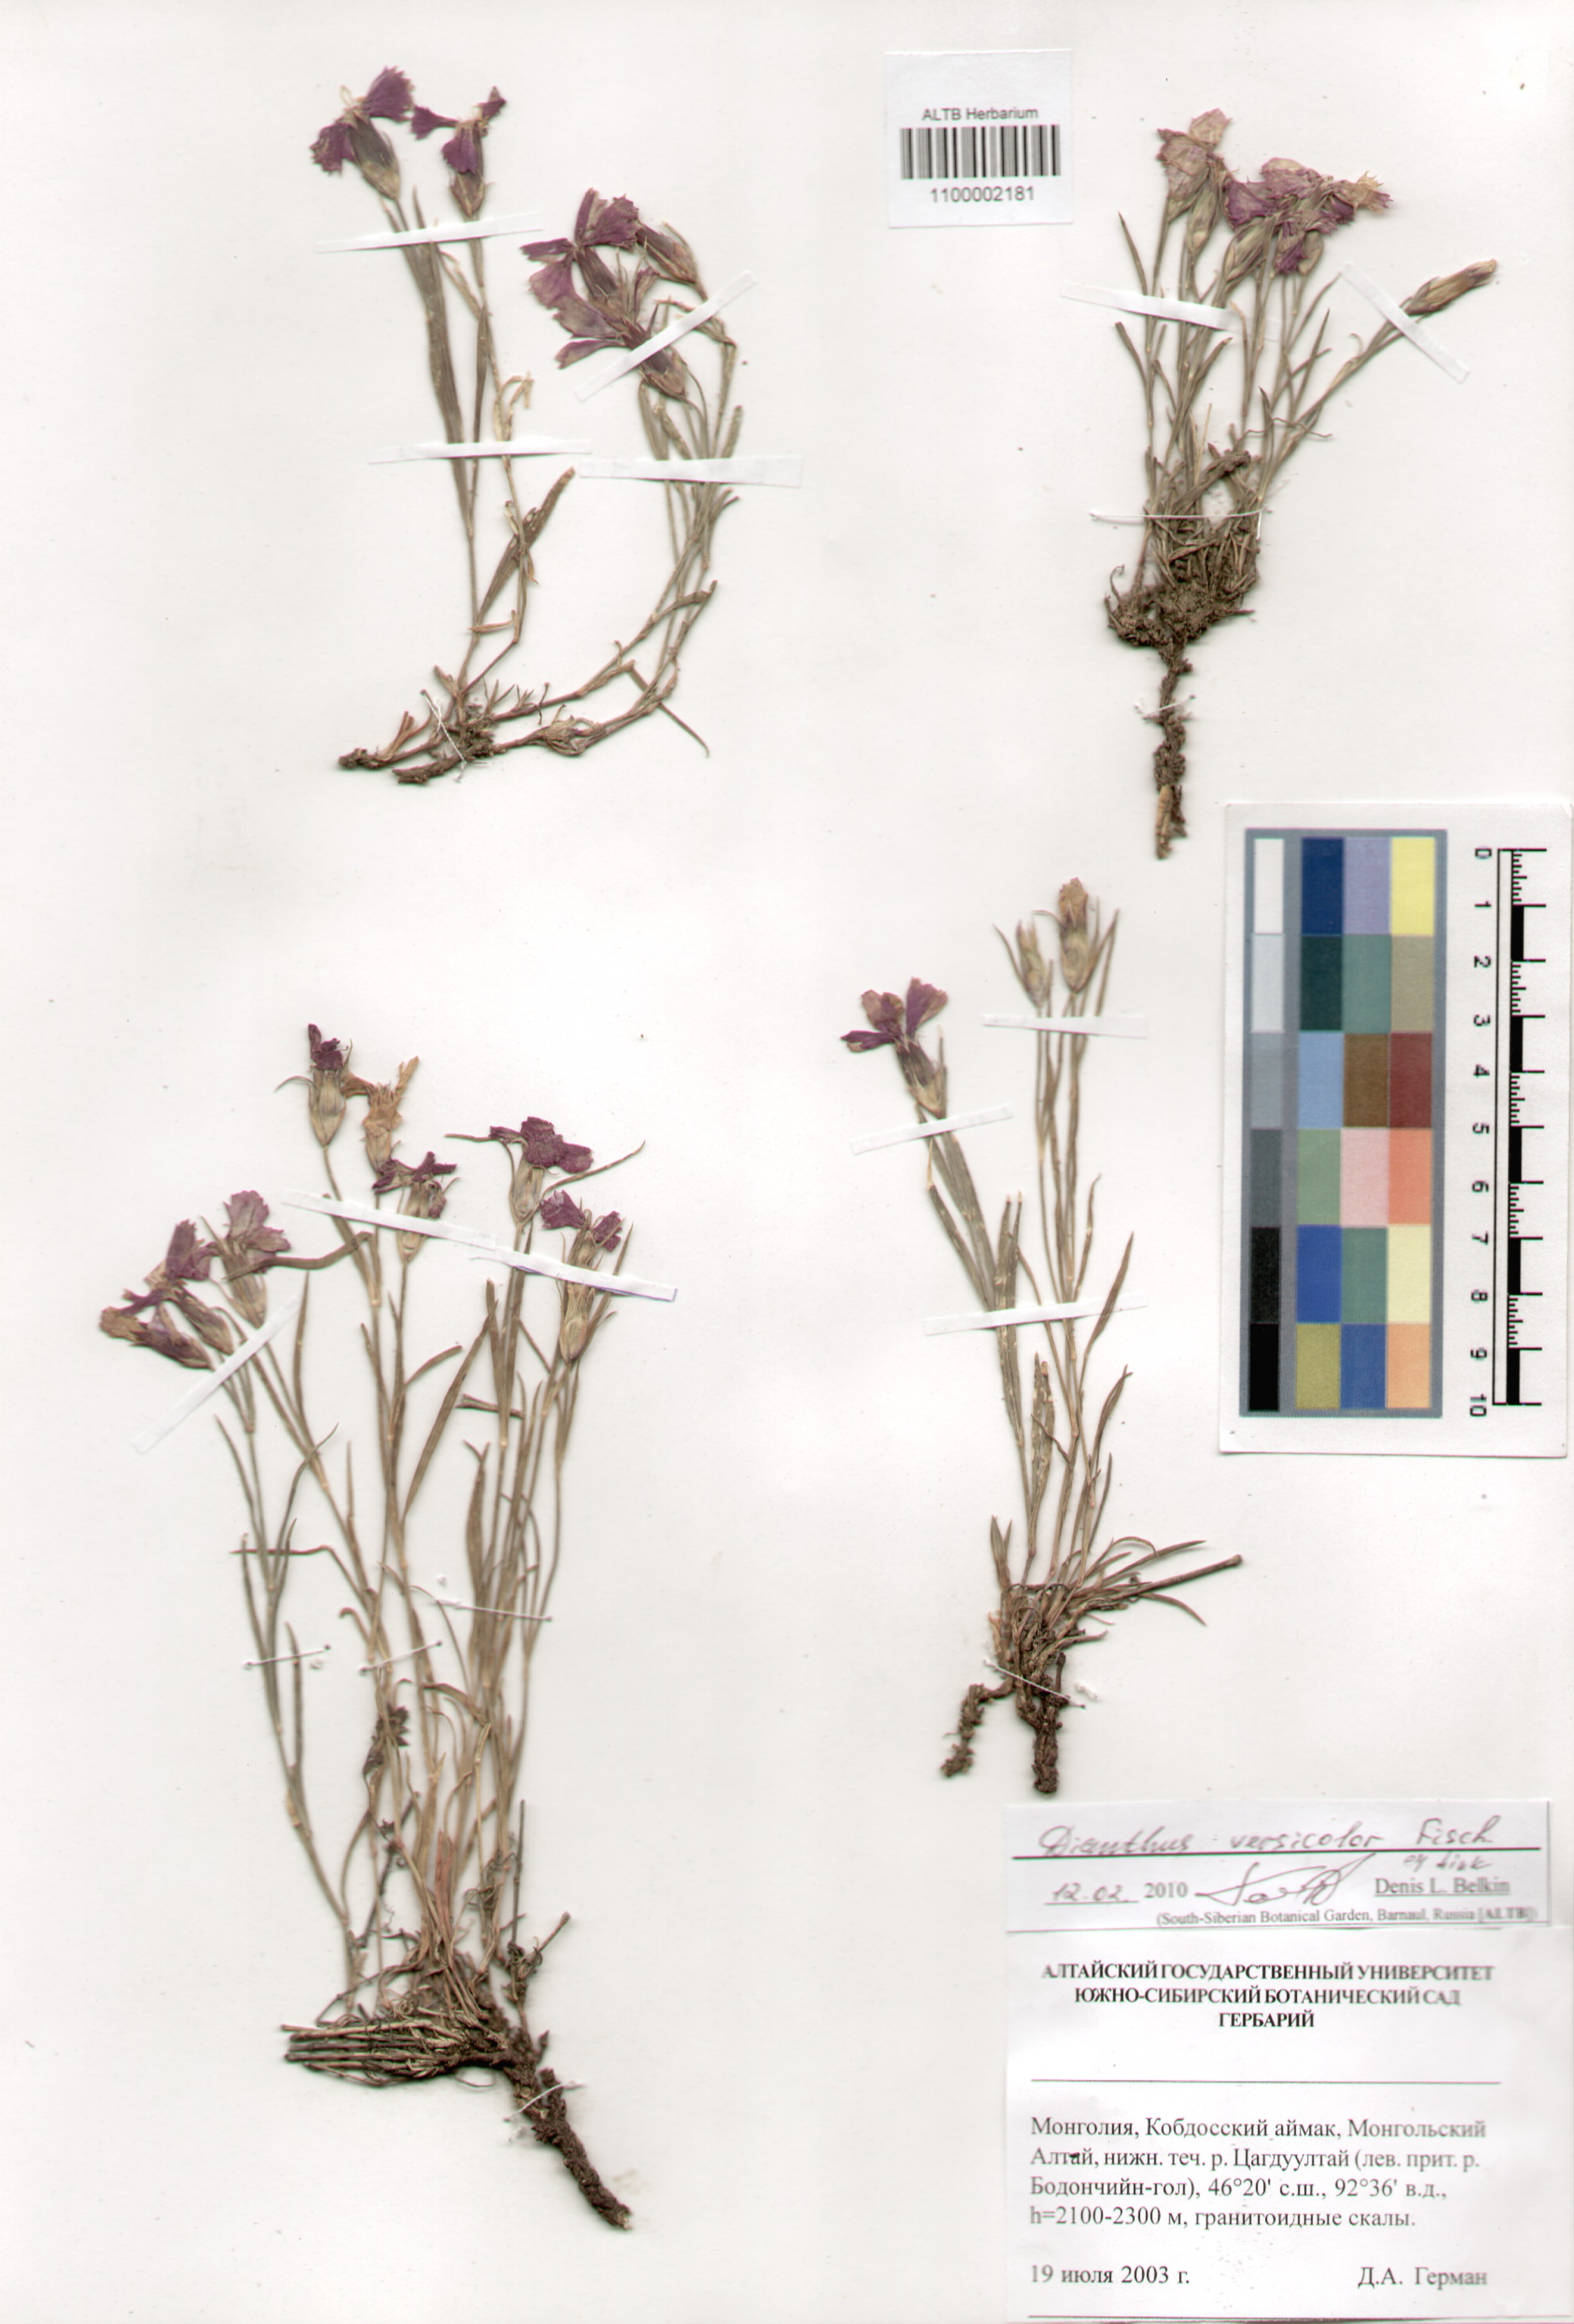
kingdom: Plantae
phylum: Tracheophyta
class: Magnoliopsida
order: Caryophyllales
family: Caryophyllaceae
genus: Dianthus
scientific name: Dianthus chinensis
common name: Rainbow pink
